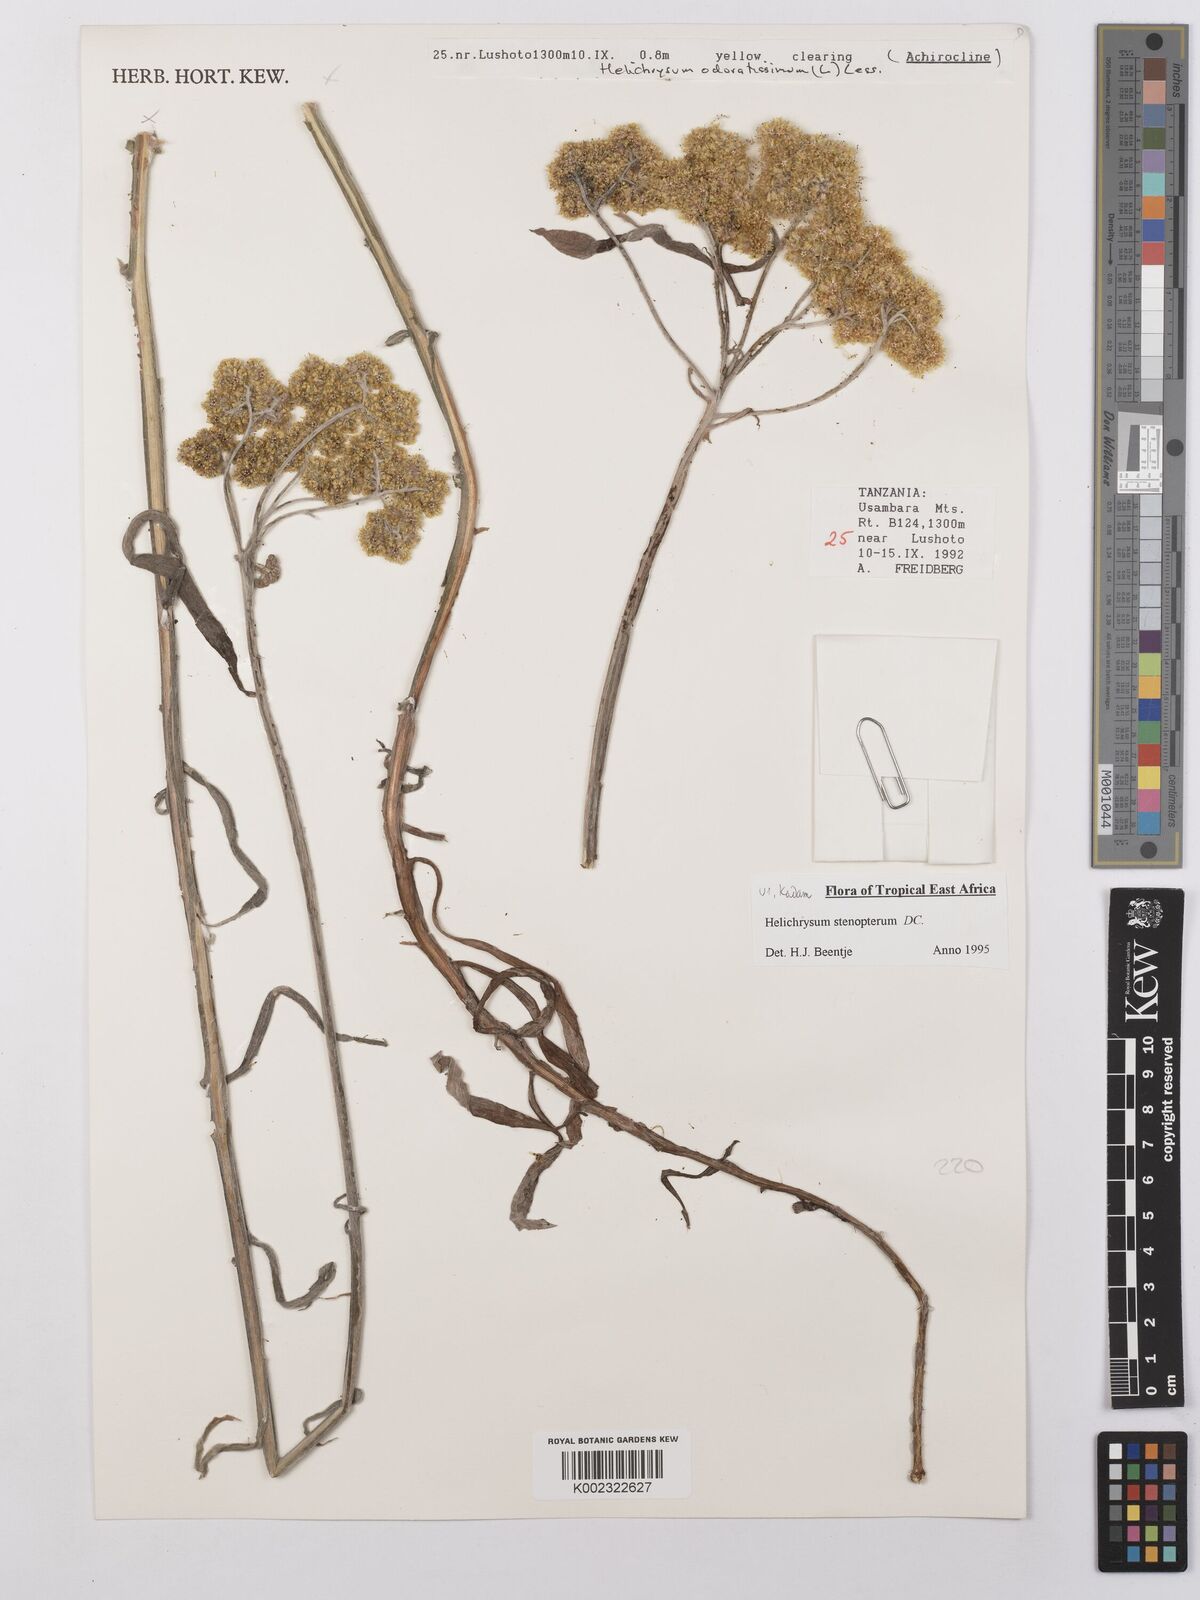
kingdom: Plantae
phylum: Tracheophyta
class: Magnoliopsida
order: Asterales
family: Asteraceae
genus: Helichrysum
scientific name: Helichrysum stenopterum
